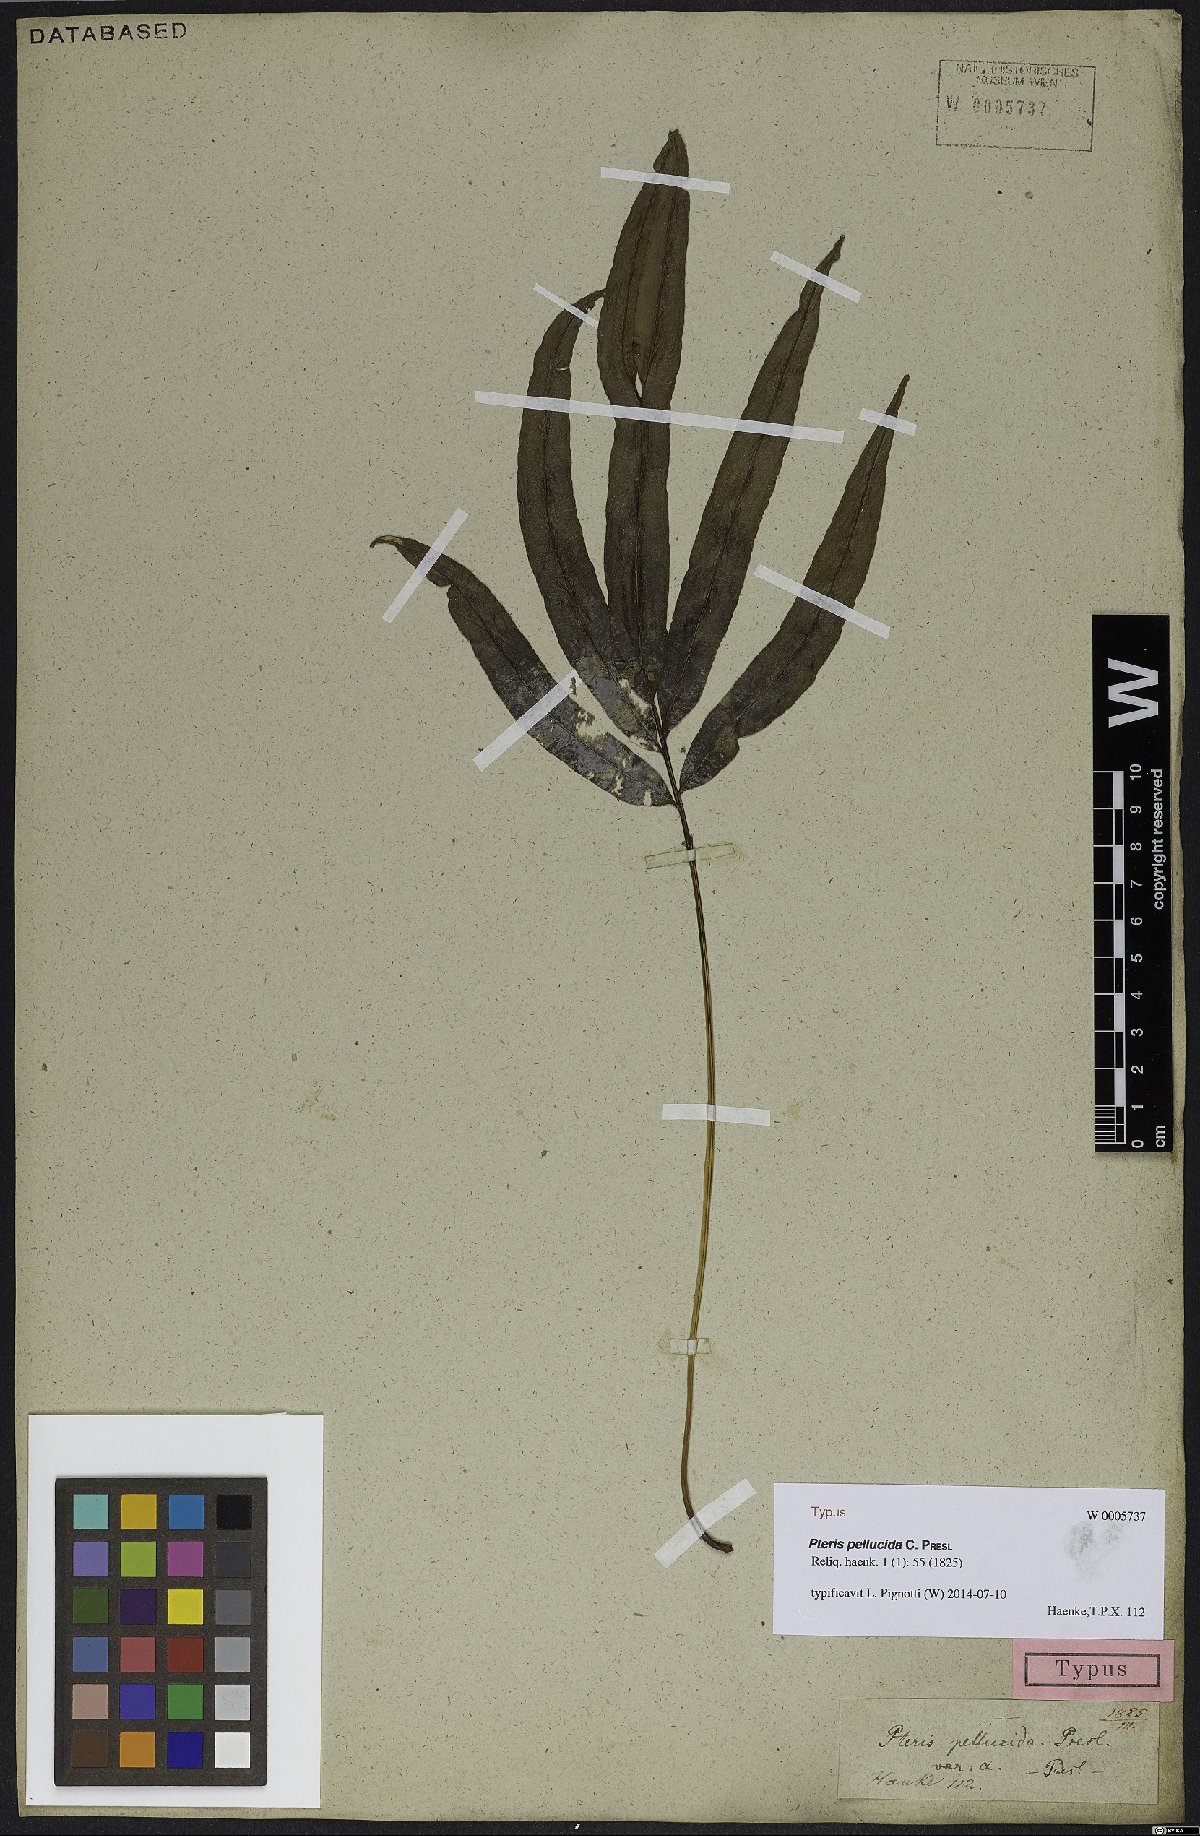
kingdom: Plantae
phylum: Tracheophyta
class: Polypodiopsida
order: Polypodiales
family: Pteridaceae
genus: Pteris
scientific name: Pteris pellucida
